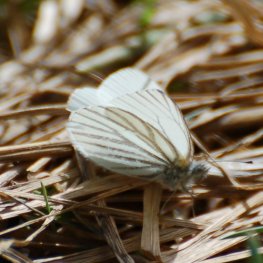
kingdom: Animalia
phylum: Arthropoda
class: Insecta
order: Lepidoptera
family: Pieridae
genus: Pieris
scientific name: Pieris oleracea
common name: Mustard White
